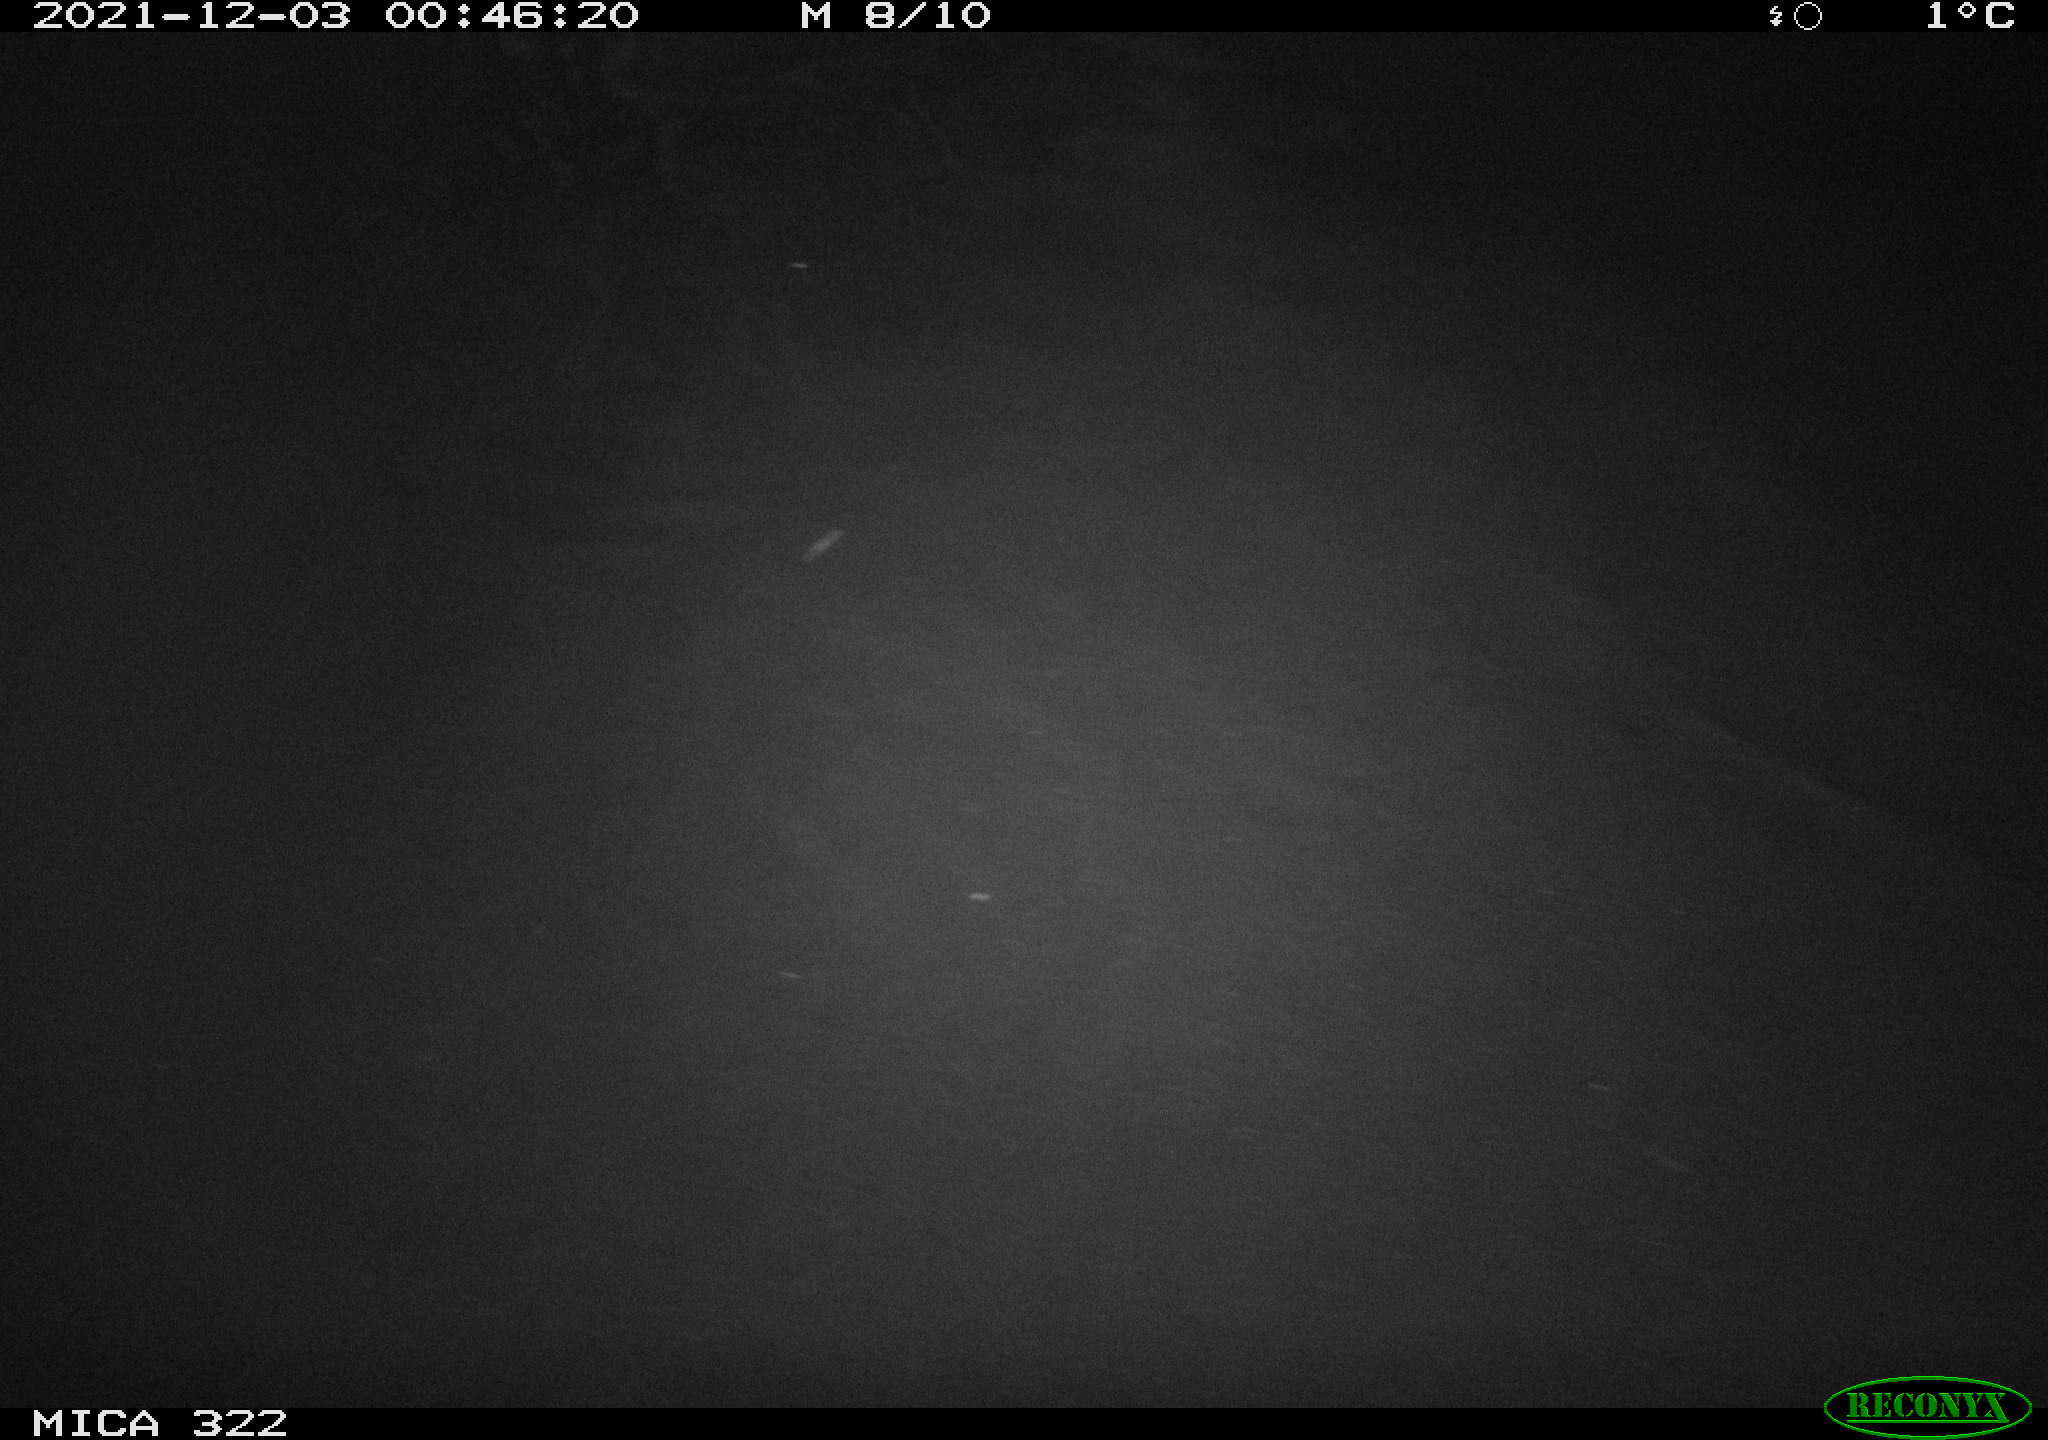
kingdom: Animalia
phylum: Chordata
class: Mammalia
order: Rodentia
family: Muridae
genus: Rattus
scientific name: Rattus norvegicus
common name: Brown rat
